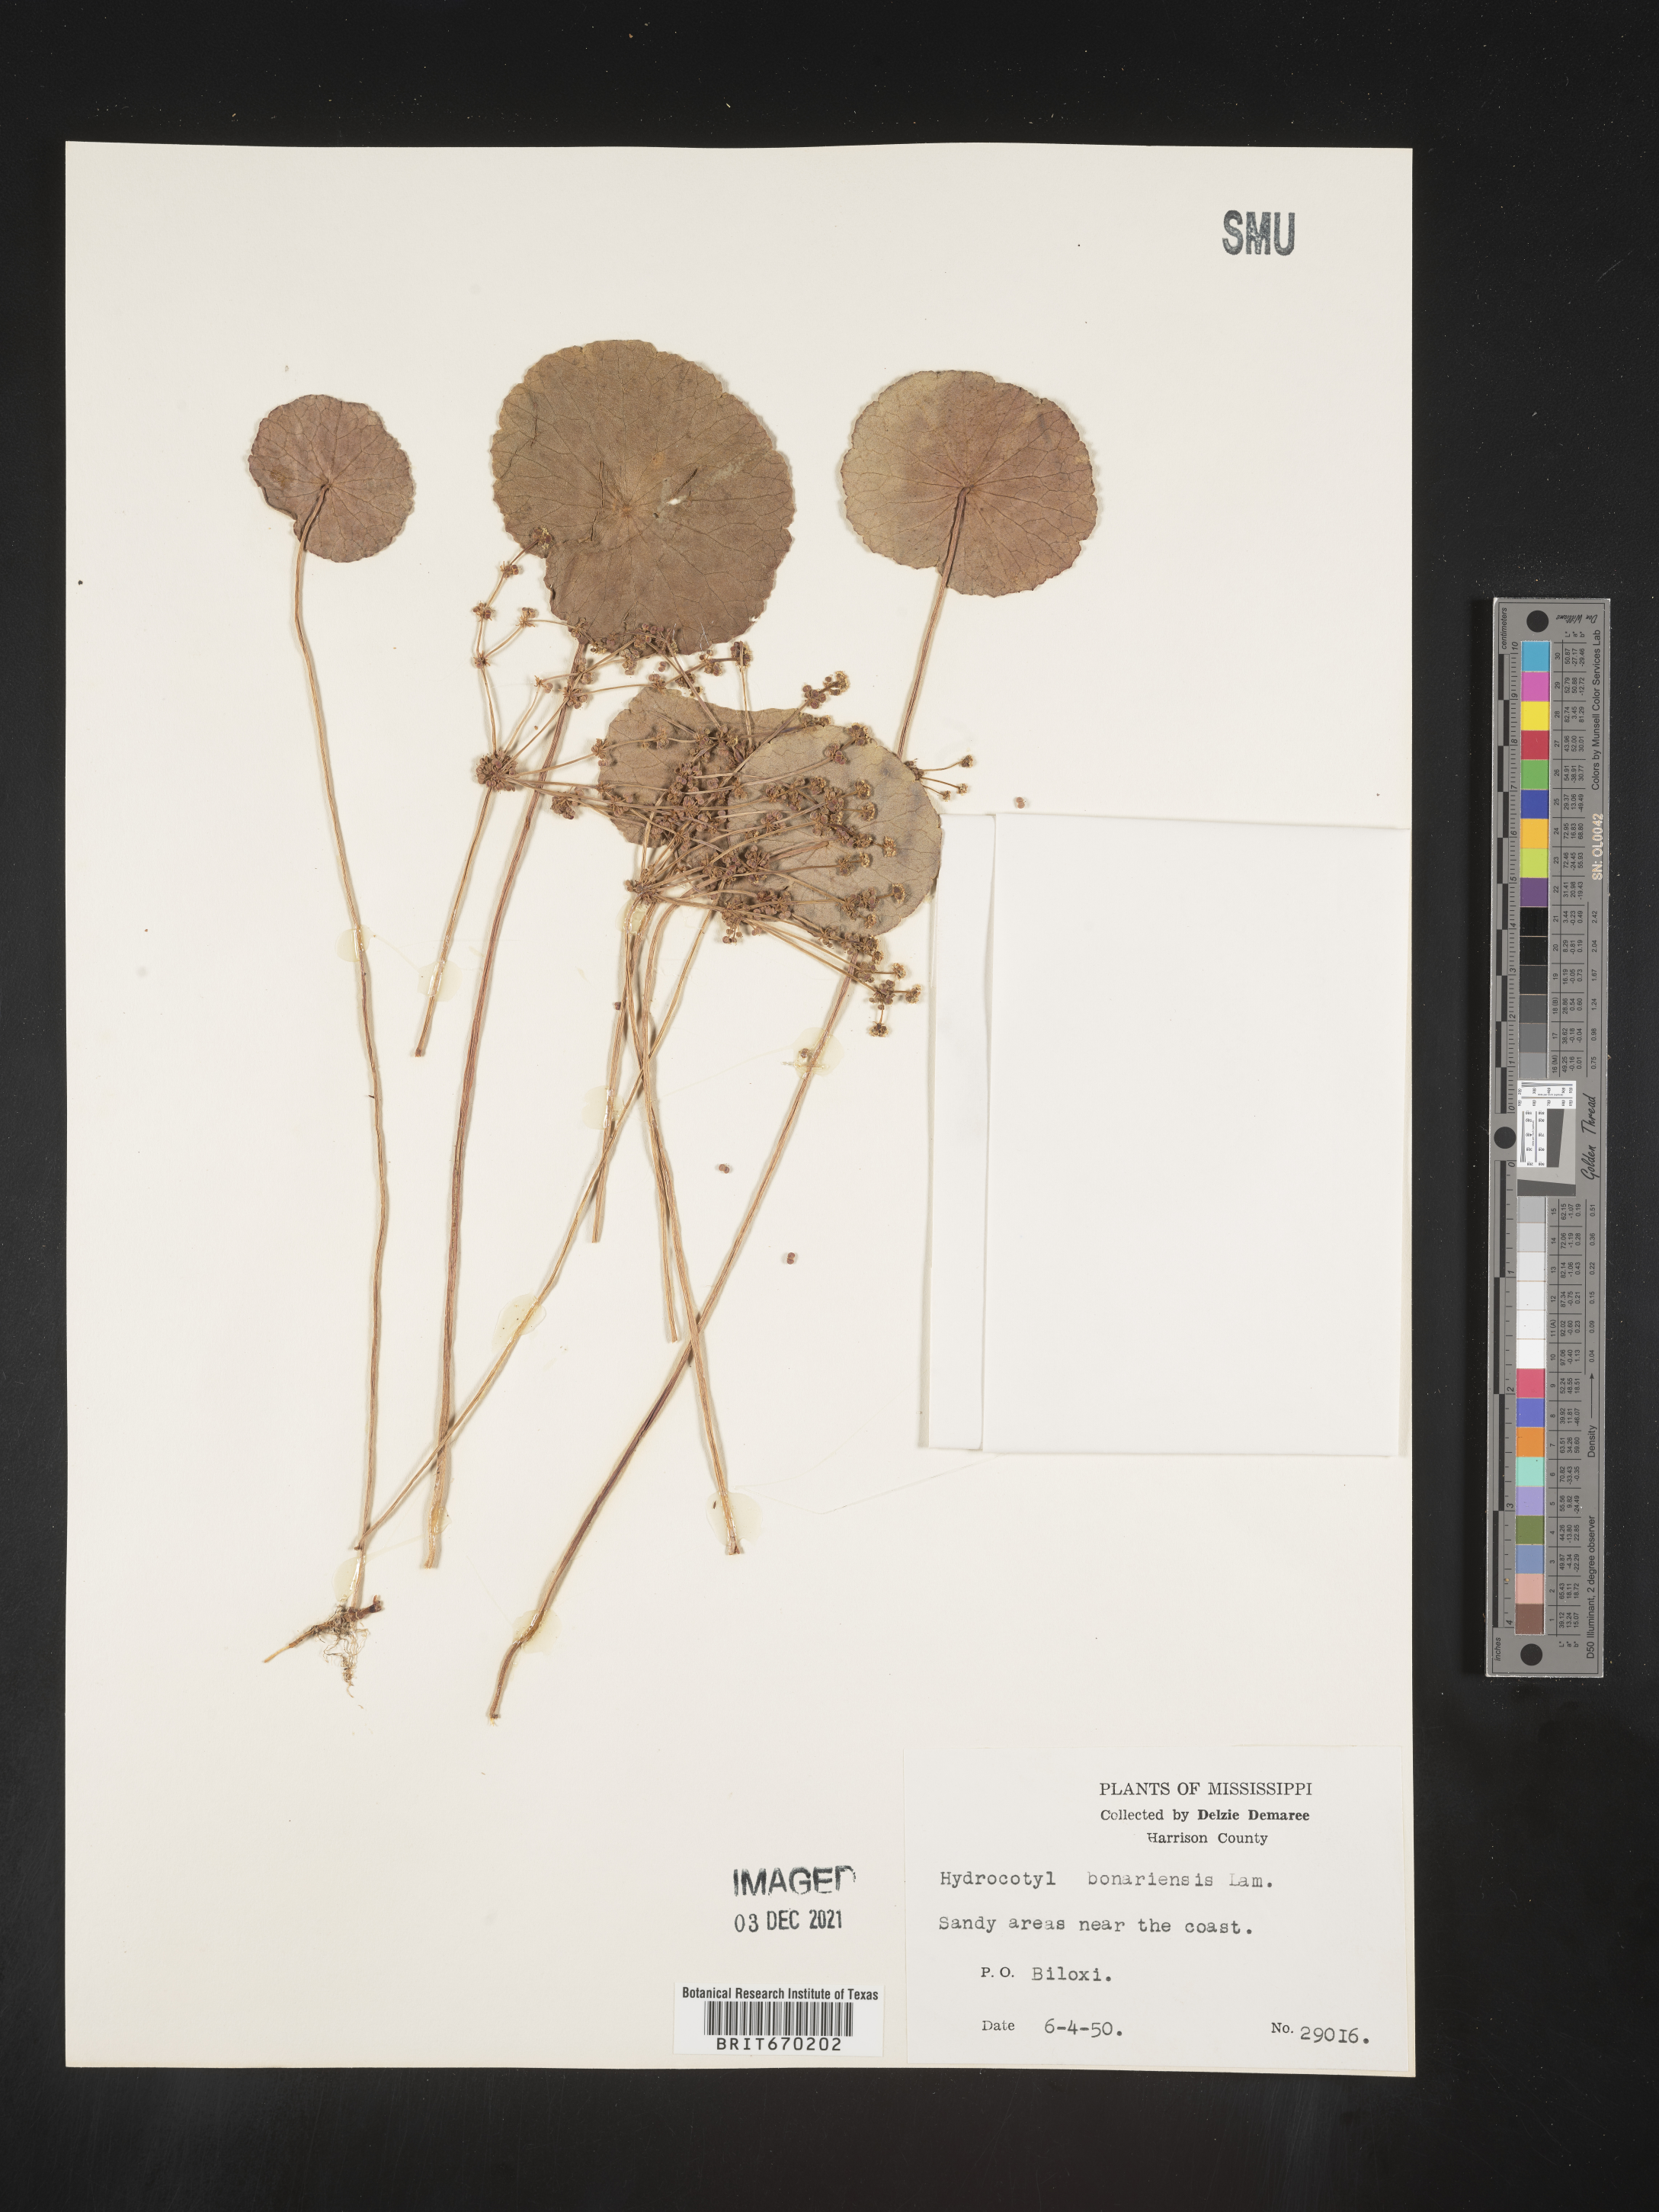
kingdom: Plantae
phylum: Tracheophyta
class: Magnoliopsida
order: Apiales
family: Araliaceae
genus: Hydrocotyle
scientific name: Hydrocotyle bonariensis
